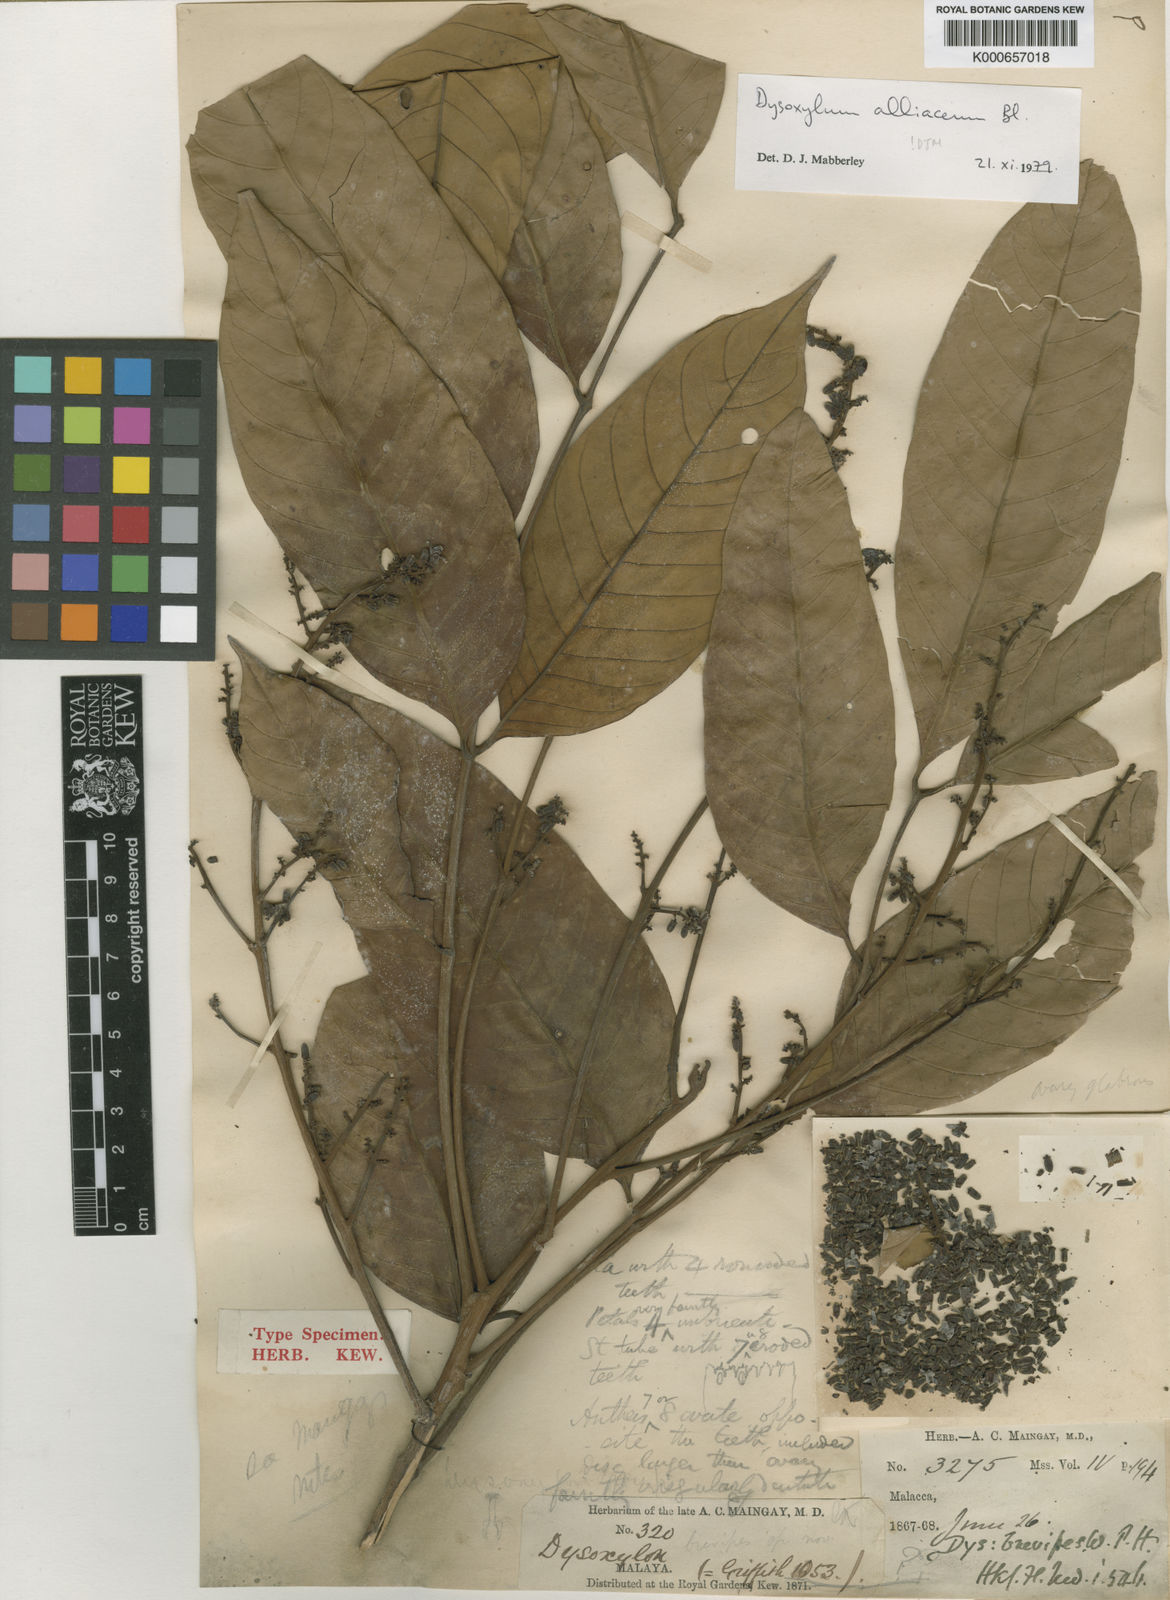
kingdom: Plantae
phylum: Tracheophyta
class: Magnoliopsida
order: Sapindales
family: Meliaceae
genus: Prasoxylon
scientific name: Prasoxylon alliaceum
